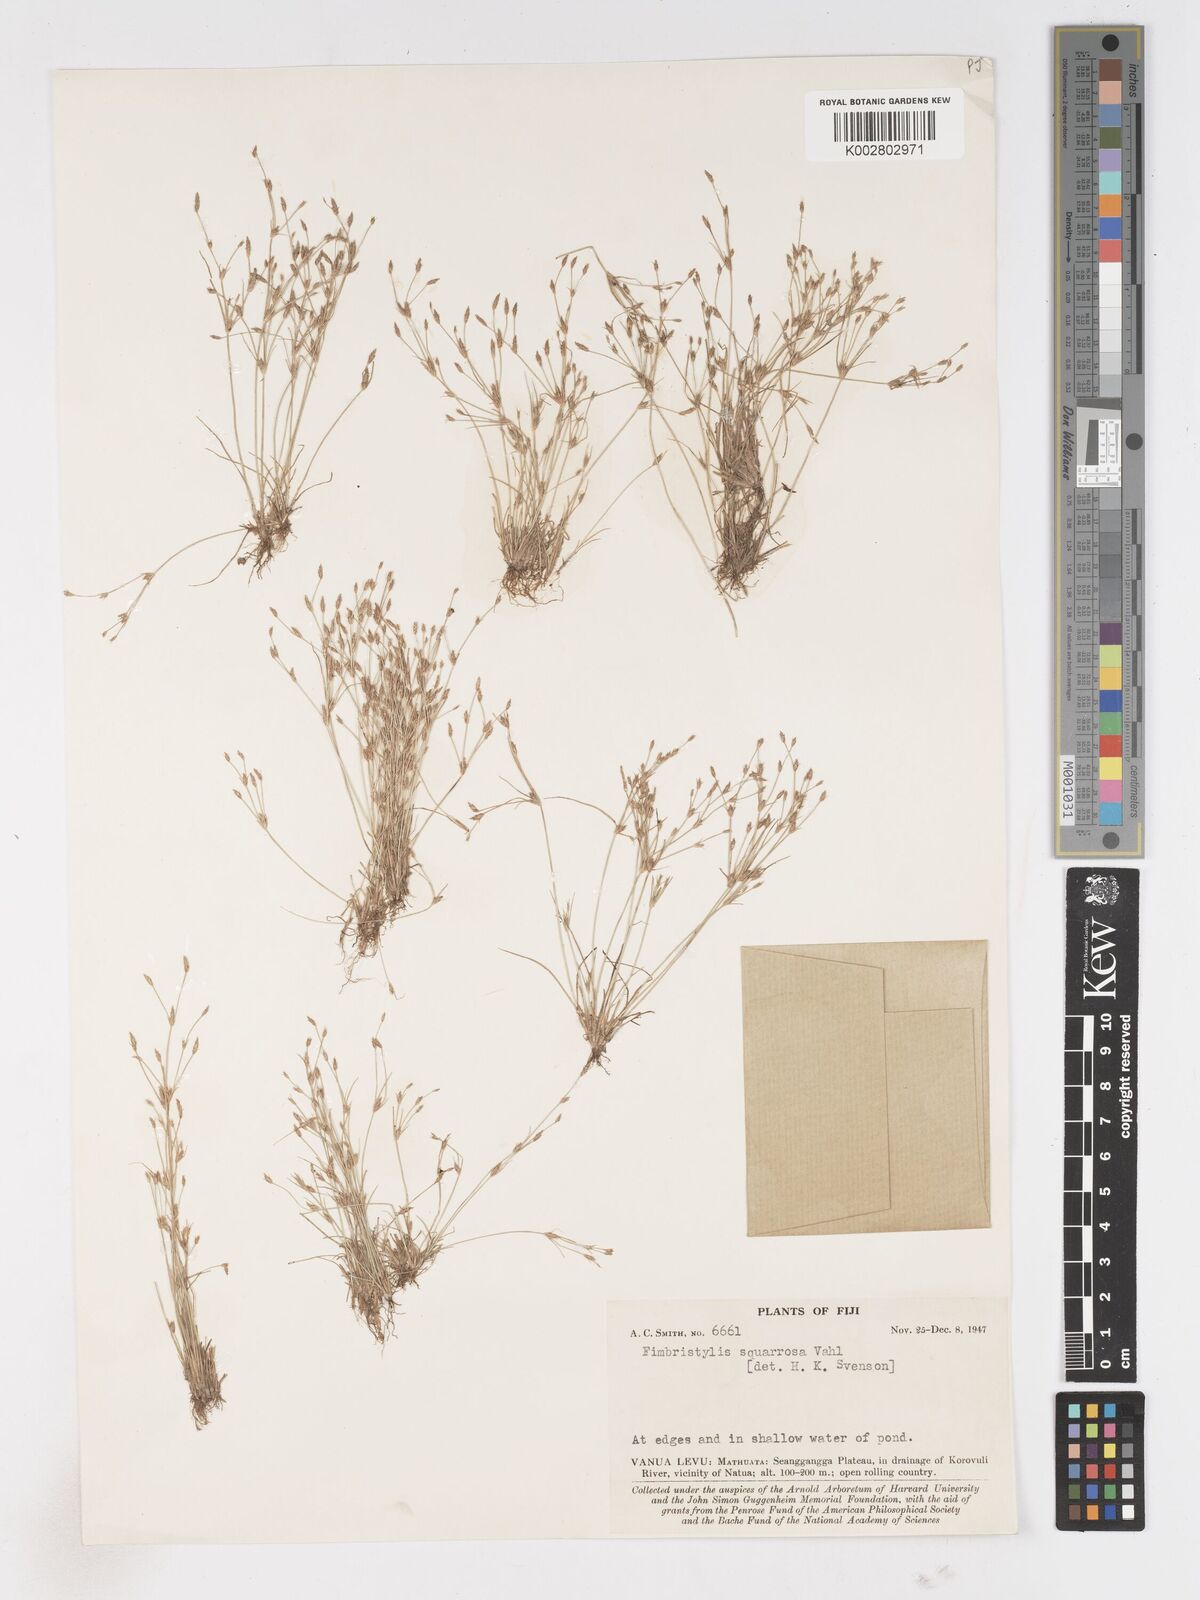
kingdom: Plantae
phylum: Tracheophyta
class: Liliopsida
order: Poales
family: Cyperaceae
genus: Fimbristylis
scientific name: Fimbristylis velata
